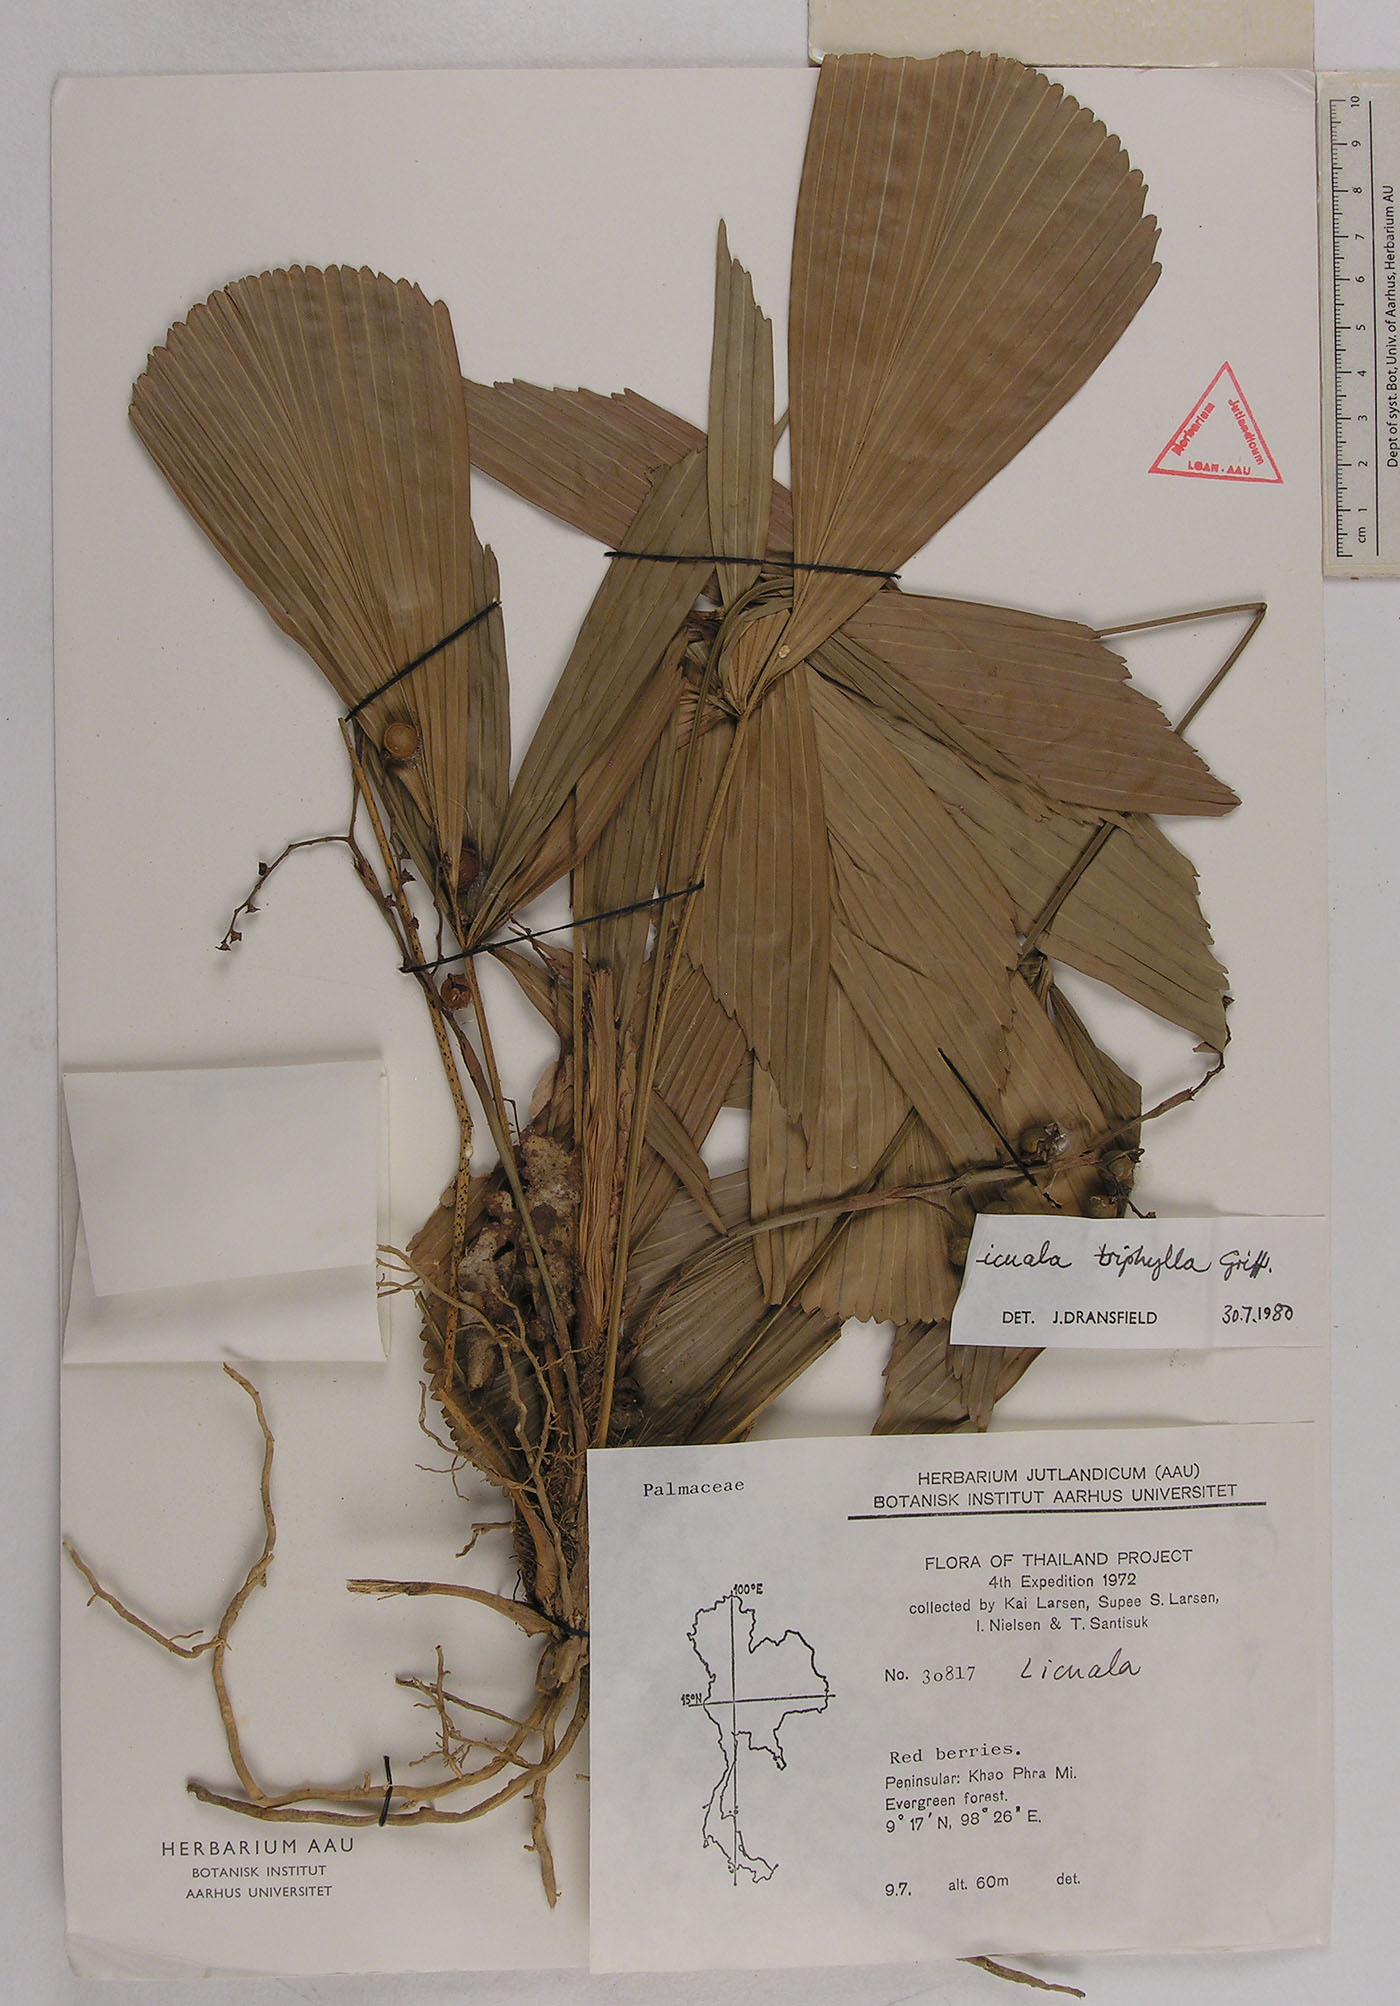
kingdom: Plantae
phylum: Tracheophyta
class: Liliopsida
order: Arecales
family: Arecaceae
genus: Licuala
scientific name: Licuala triphylla
